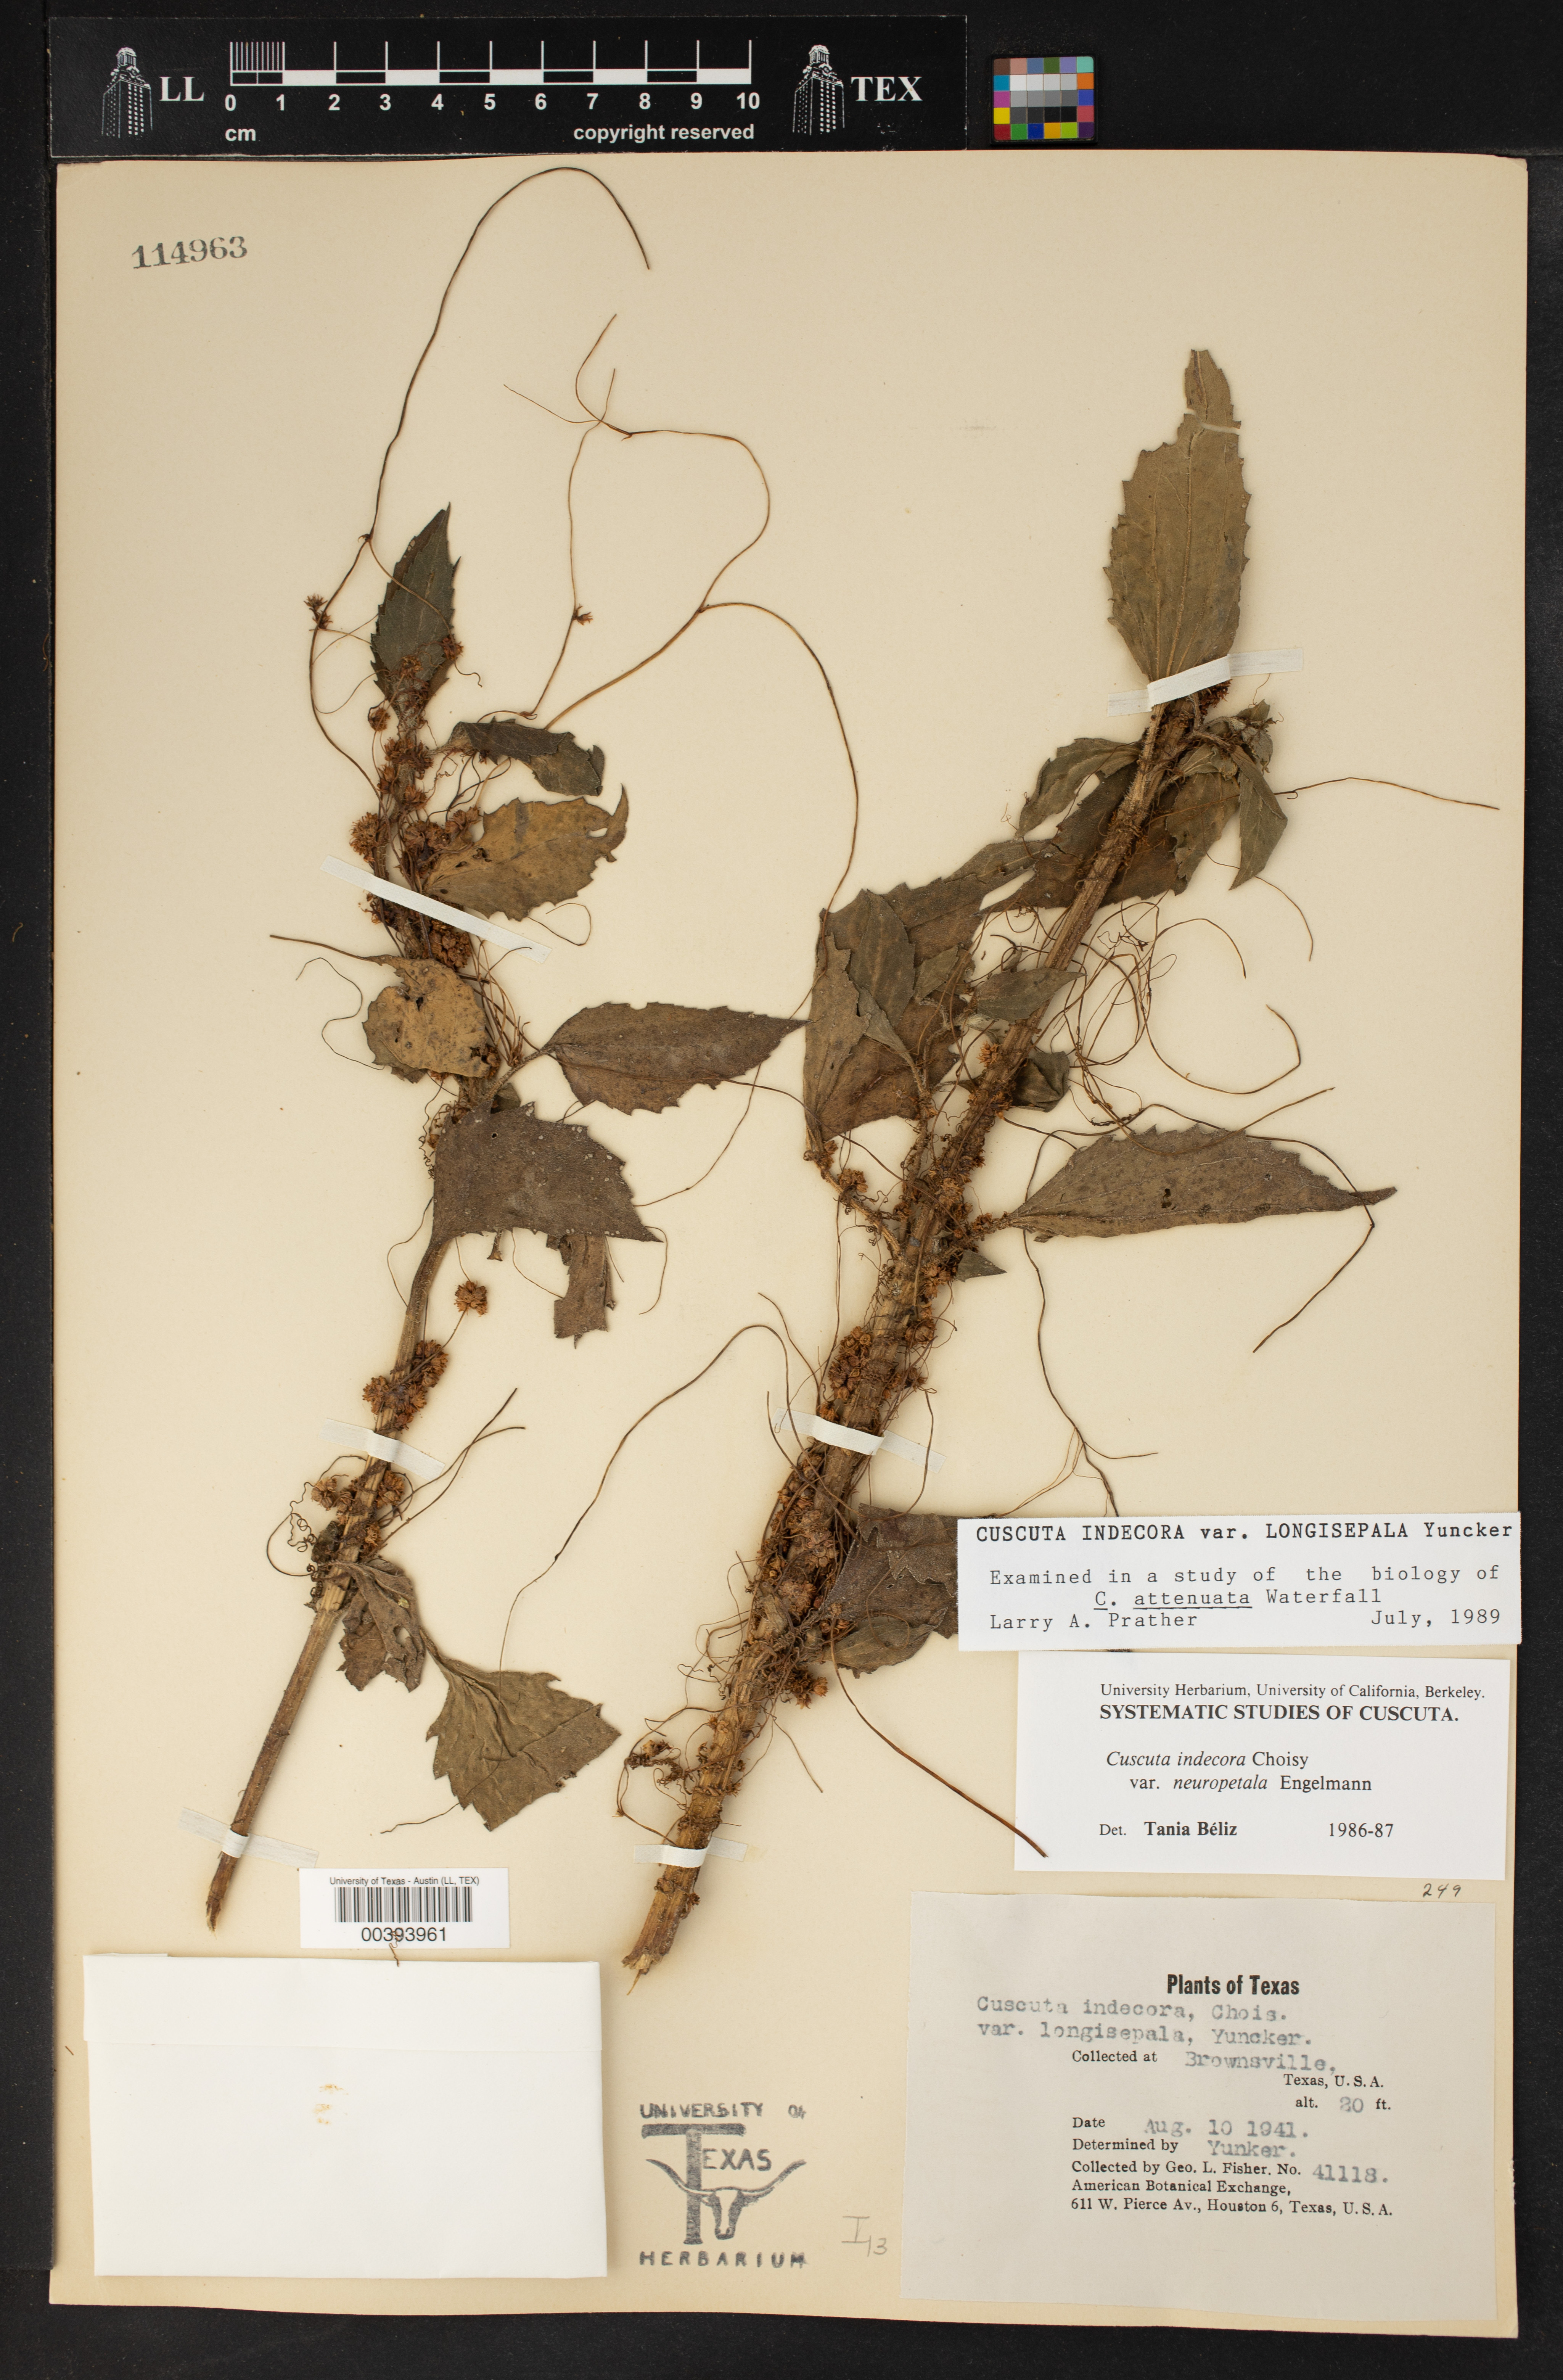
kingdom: Plantae
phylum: Tracheophyta
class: Magnoliopsida
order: Solanales
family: Convolvulaceae
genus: Cuscuta
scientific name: Cuscuta indecora
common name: Large-seed dodder
